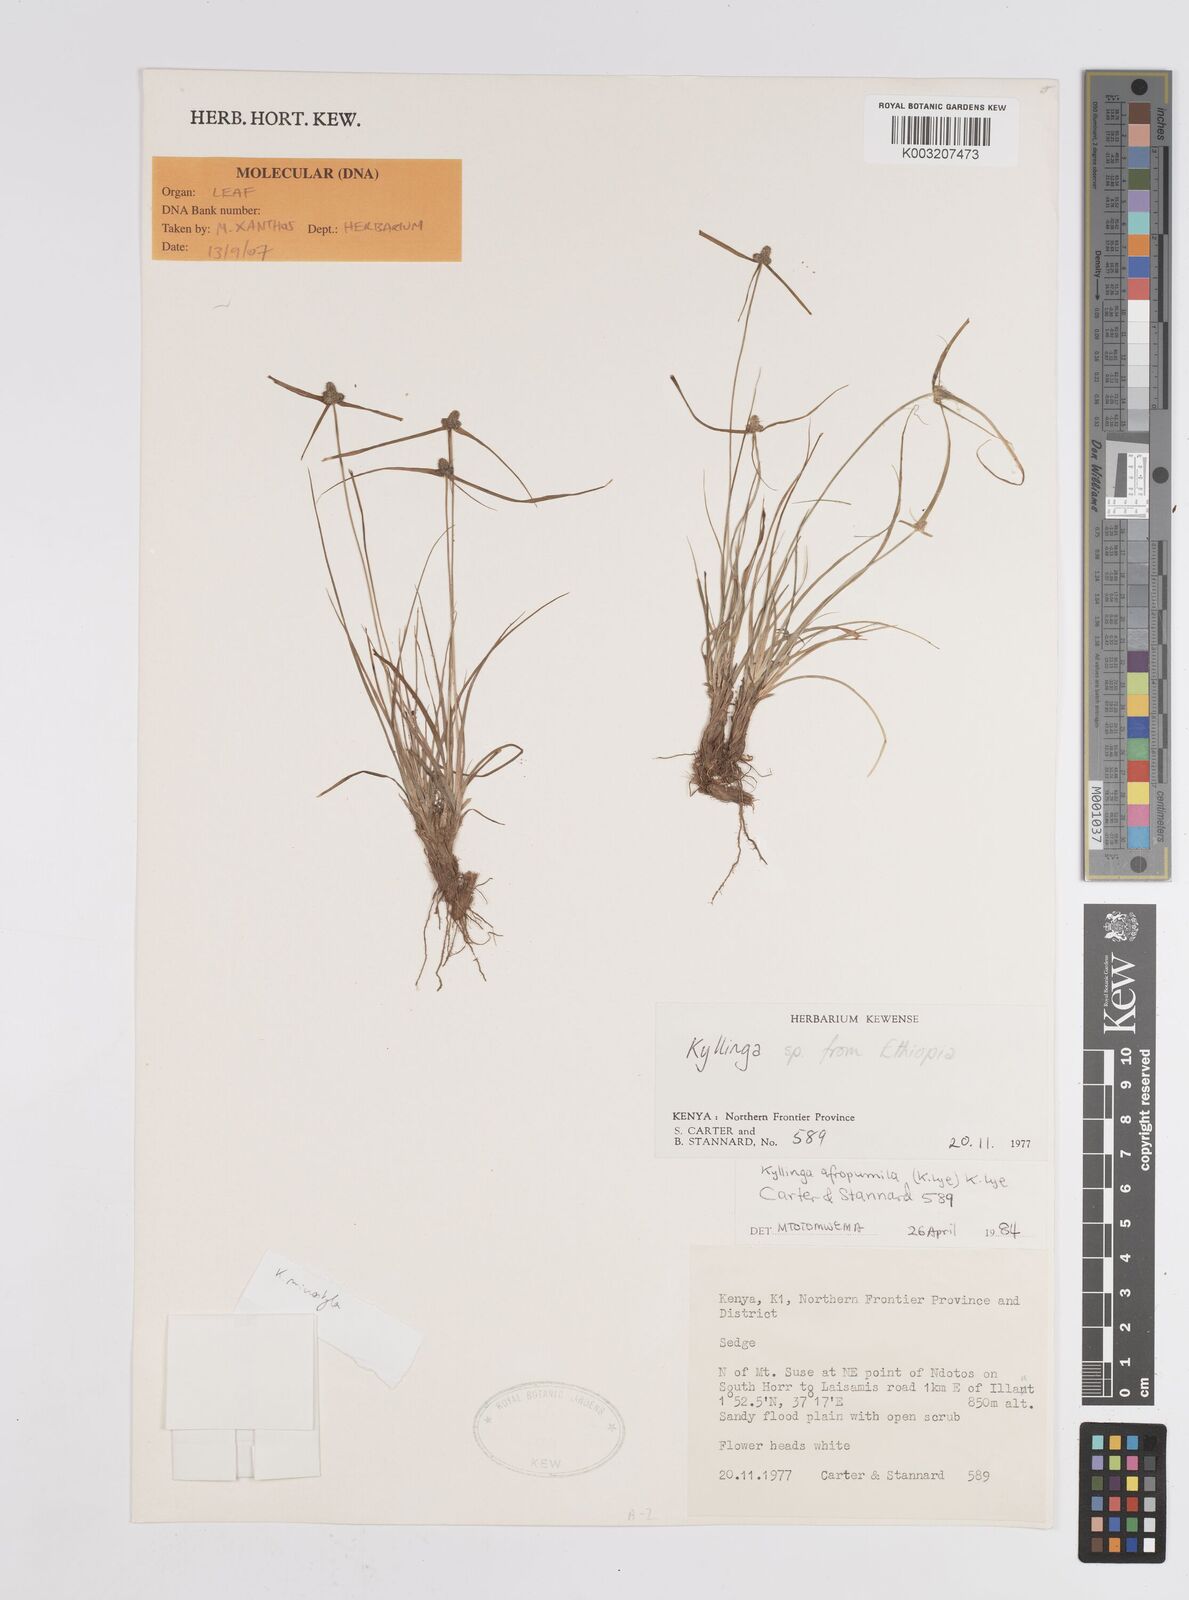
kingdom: Plantae
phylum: Tracheophyta
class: Liliopsida
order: Poales
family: Cyperaceae
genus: Cyperus
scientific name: Cyperus microstylus
